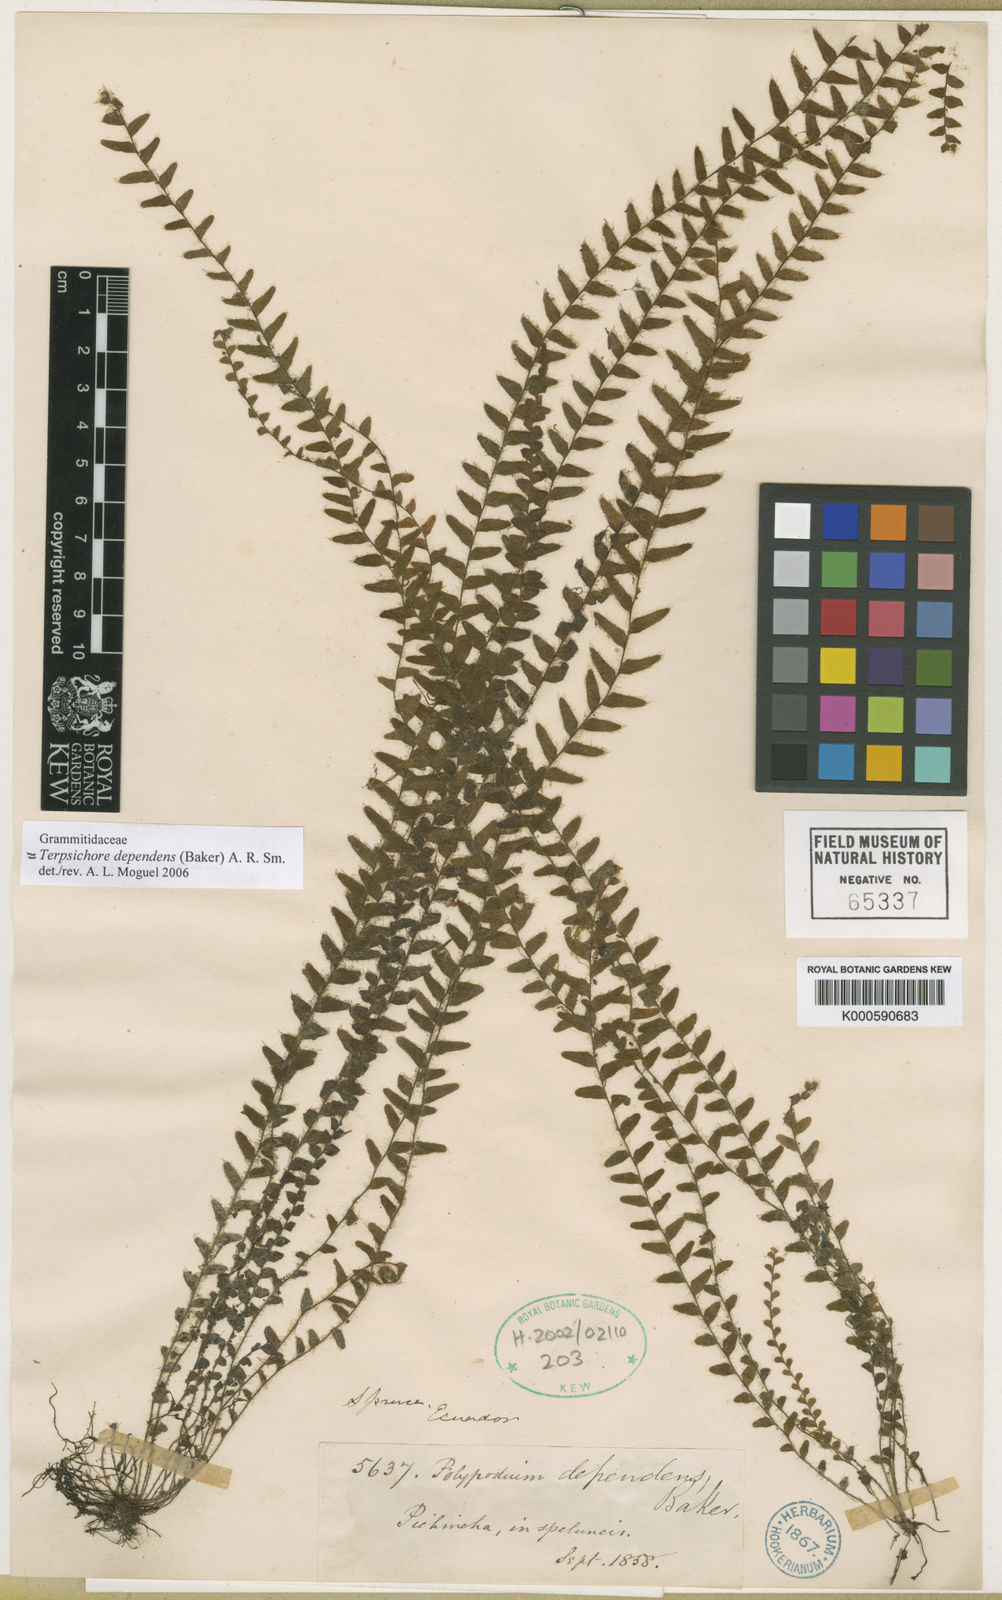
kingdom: Plantae
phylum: Tracheophyta
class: Polypodiopsida
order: Polypodiales
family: Polypodiaceae
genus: Alansmia
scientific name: Alansmia dependens
